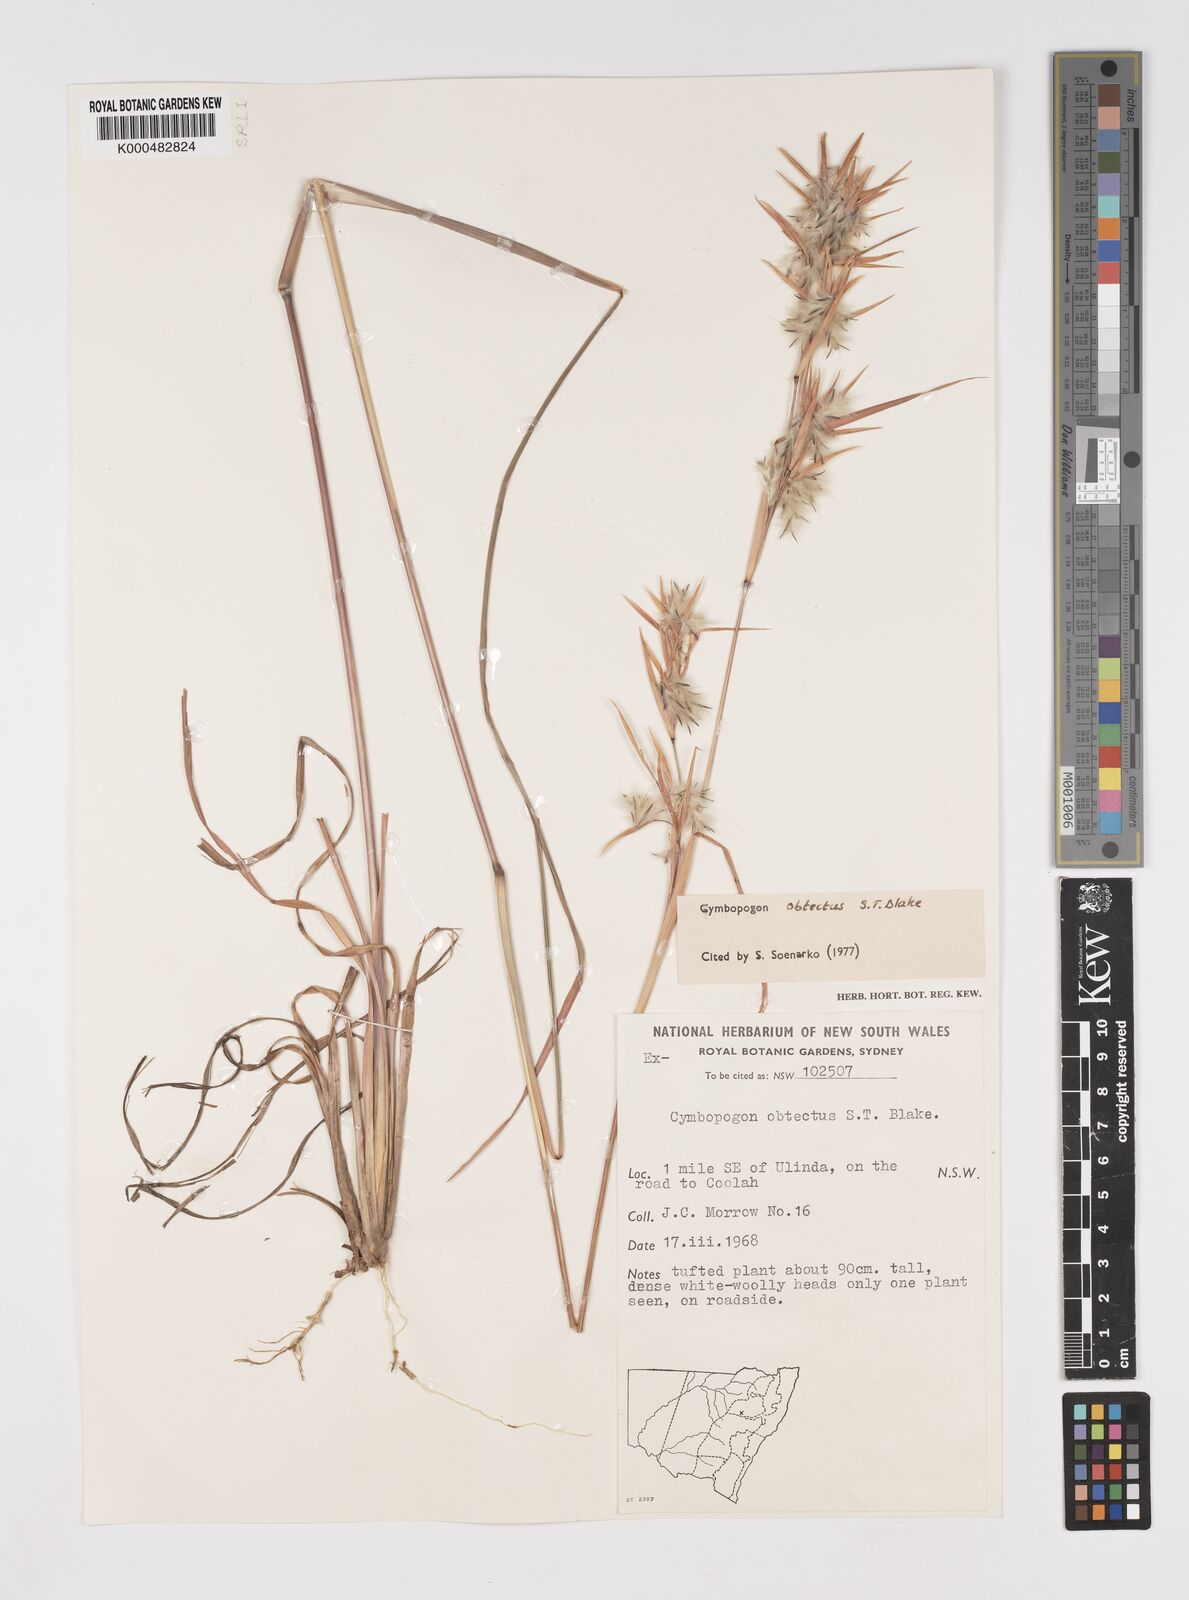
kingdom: Plantae
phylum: Tracheophyta
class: Liliopsida
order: Poales
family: Poaceae
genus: Cymbopogon
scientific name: Cymbopogon obtectus
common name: Silky heads
